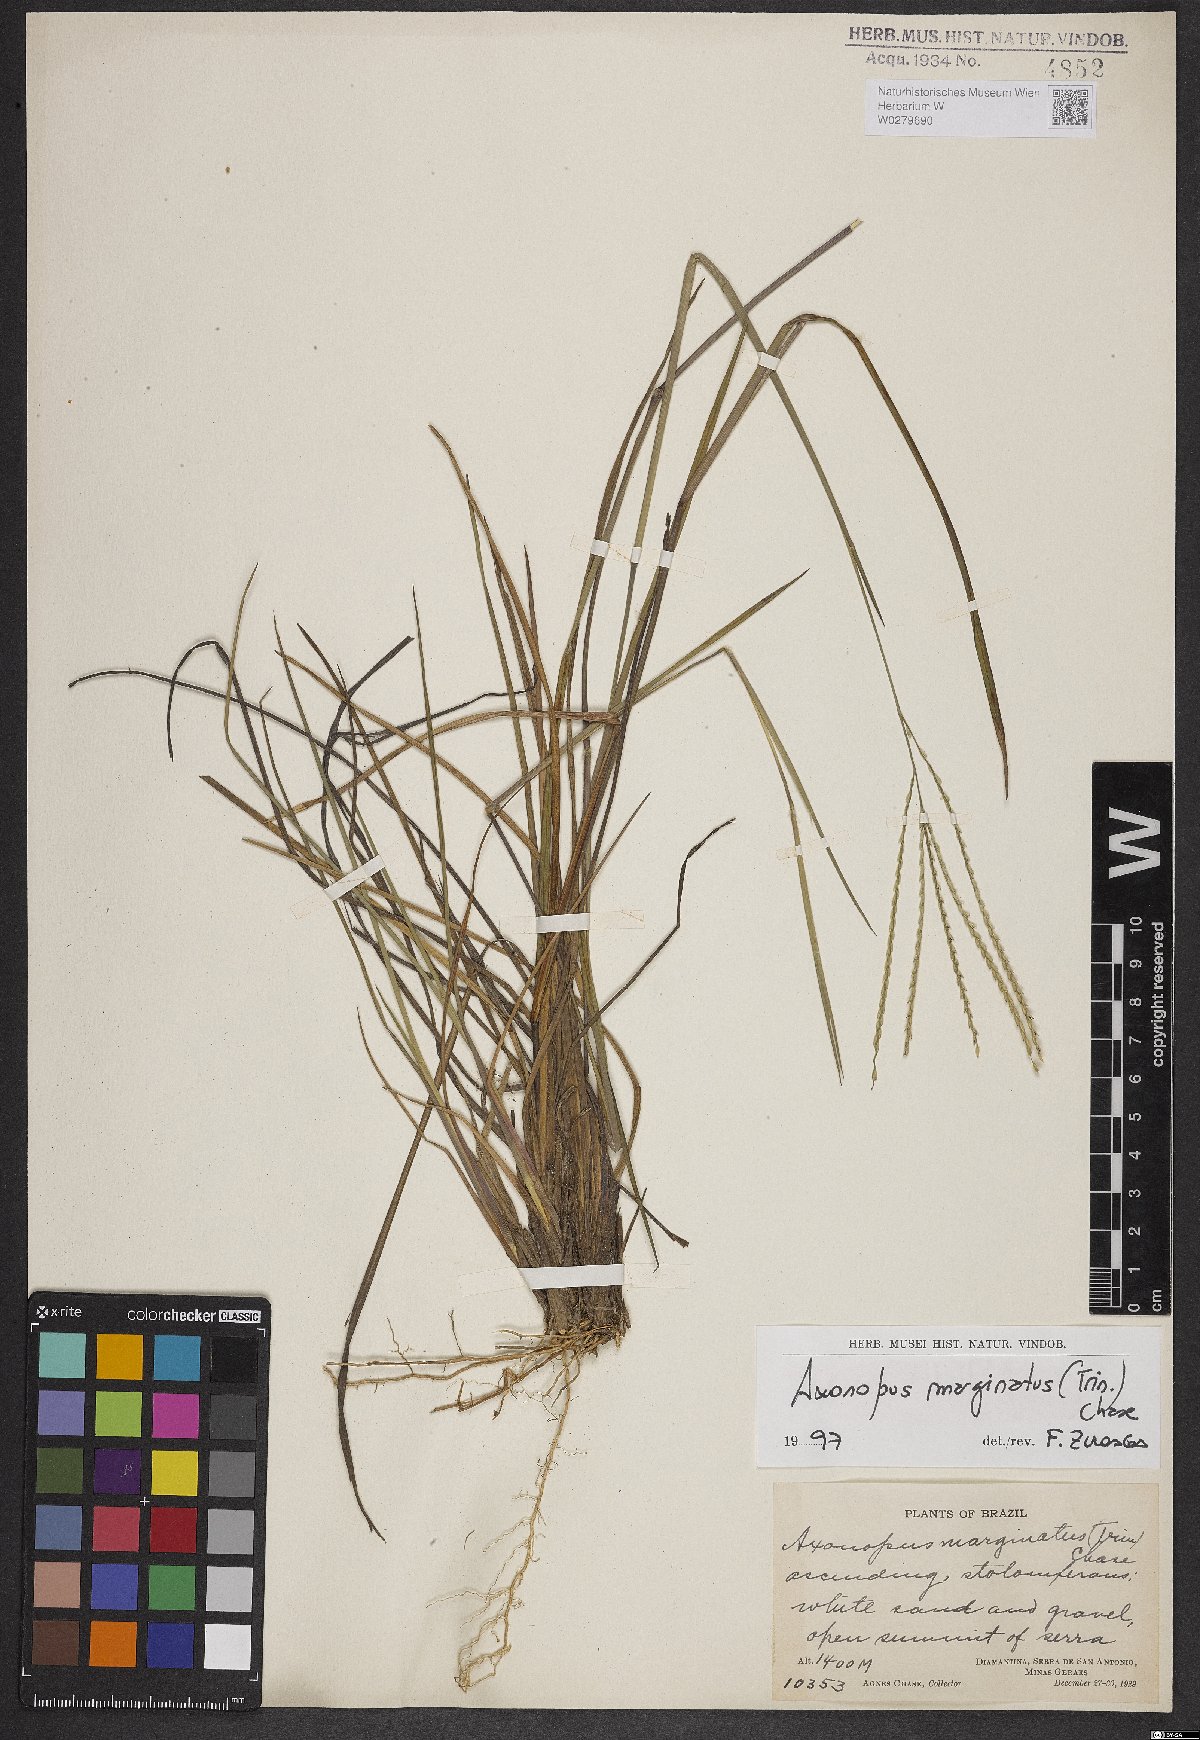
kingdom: Plantae
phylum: Tracheophyta
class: Liliopsida
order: Poales
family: Poaceae
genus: Axonopus
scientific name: Axonopus marginatus
